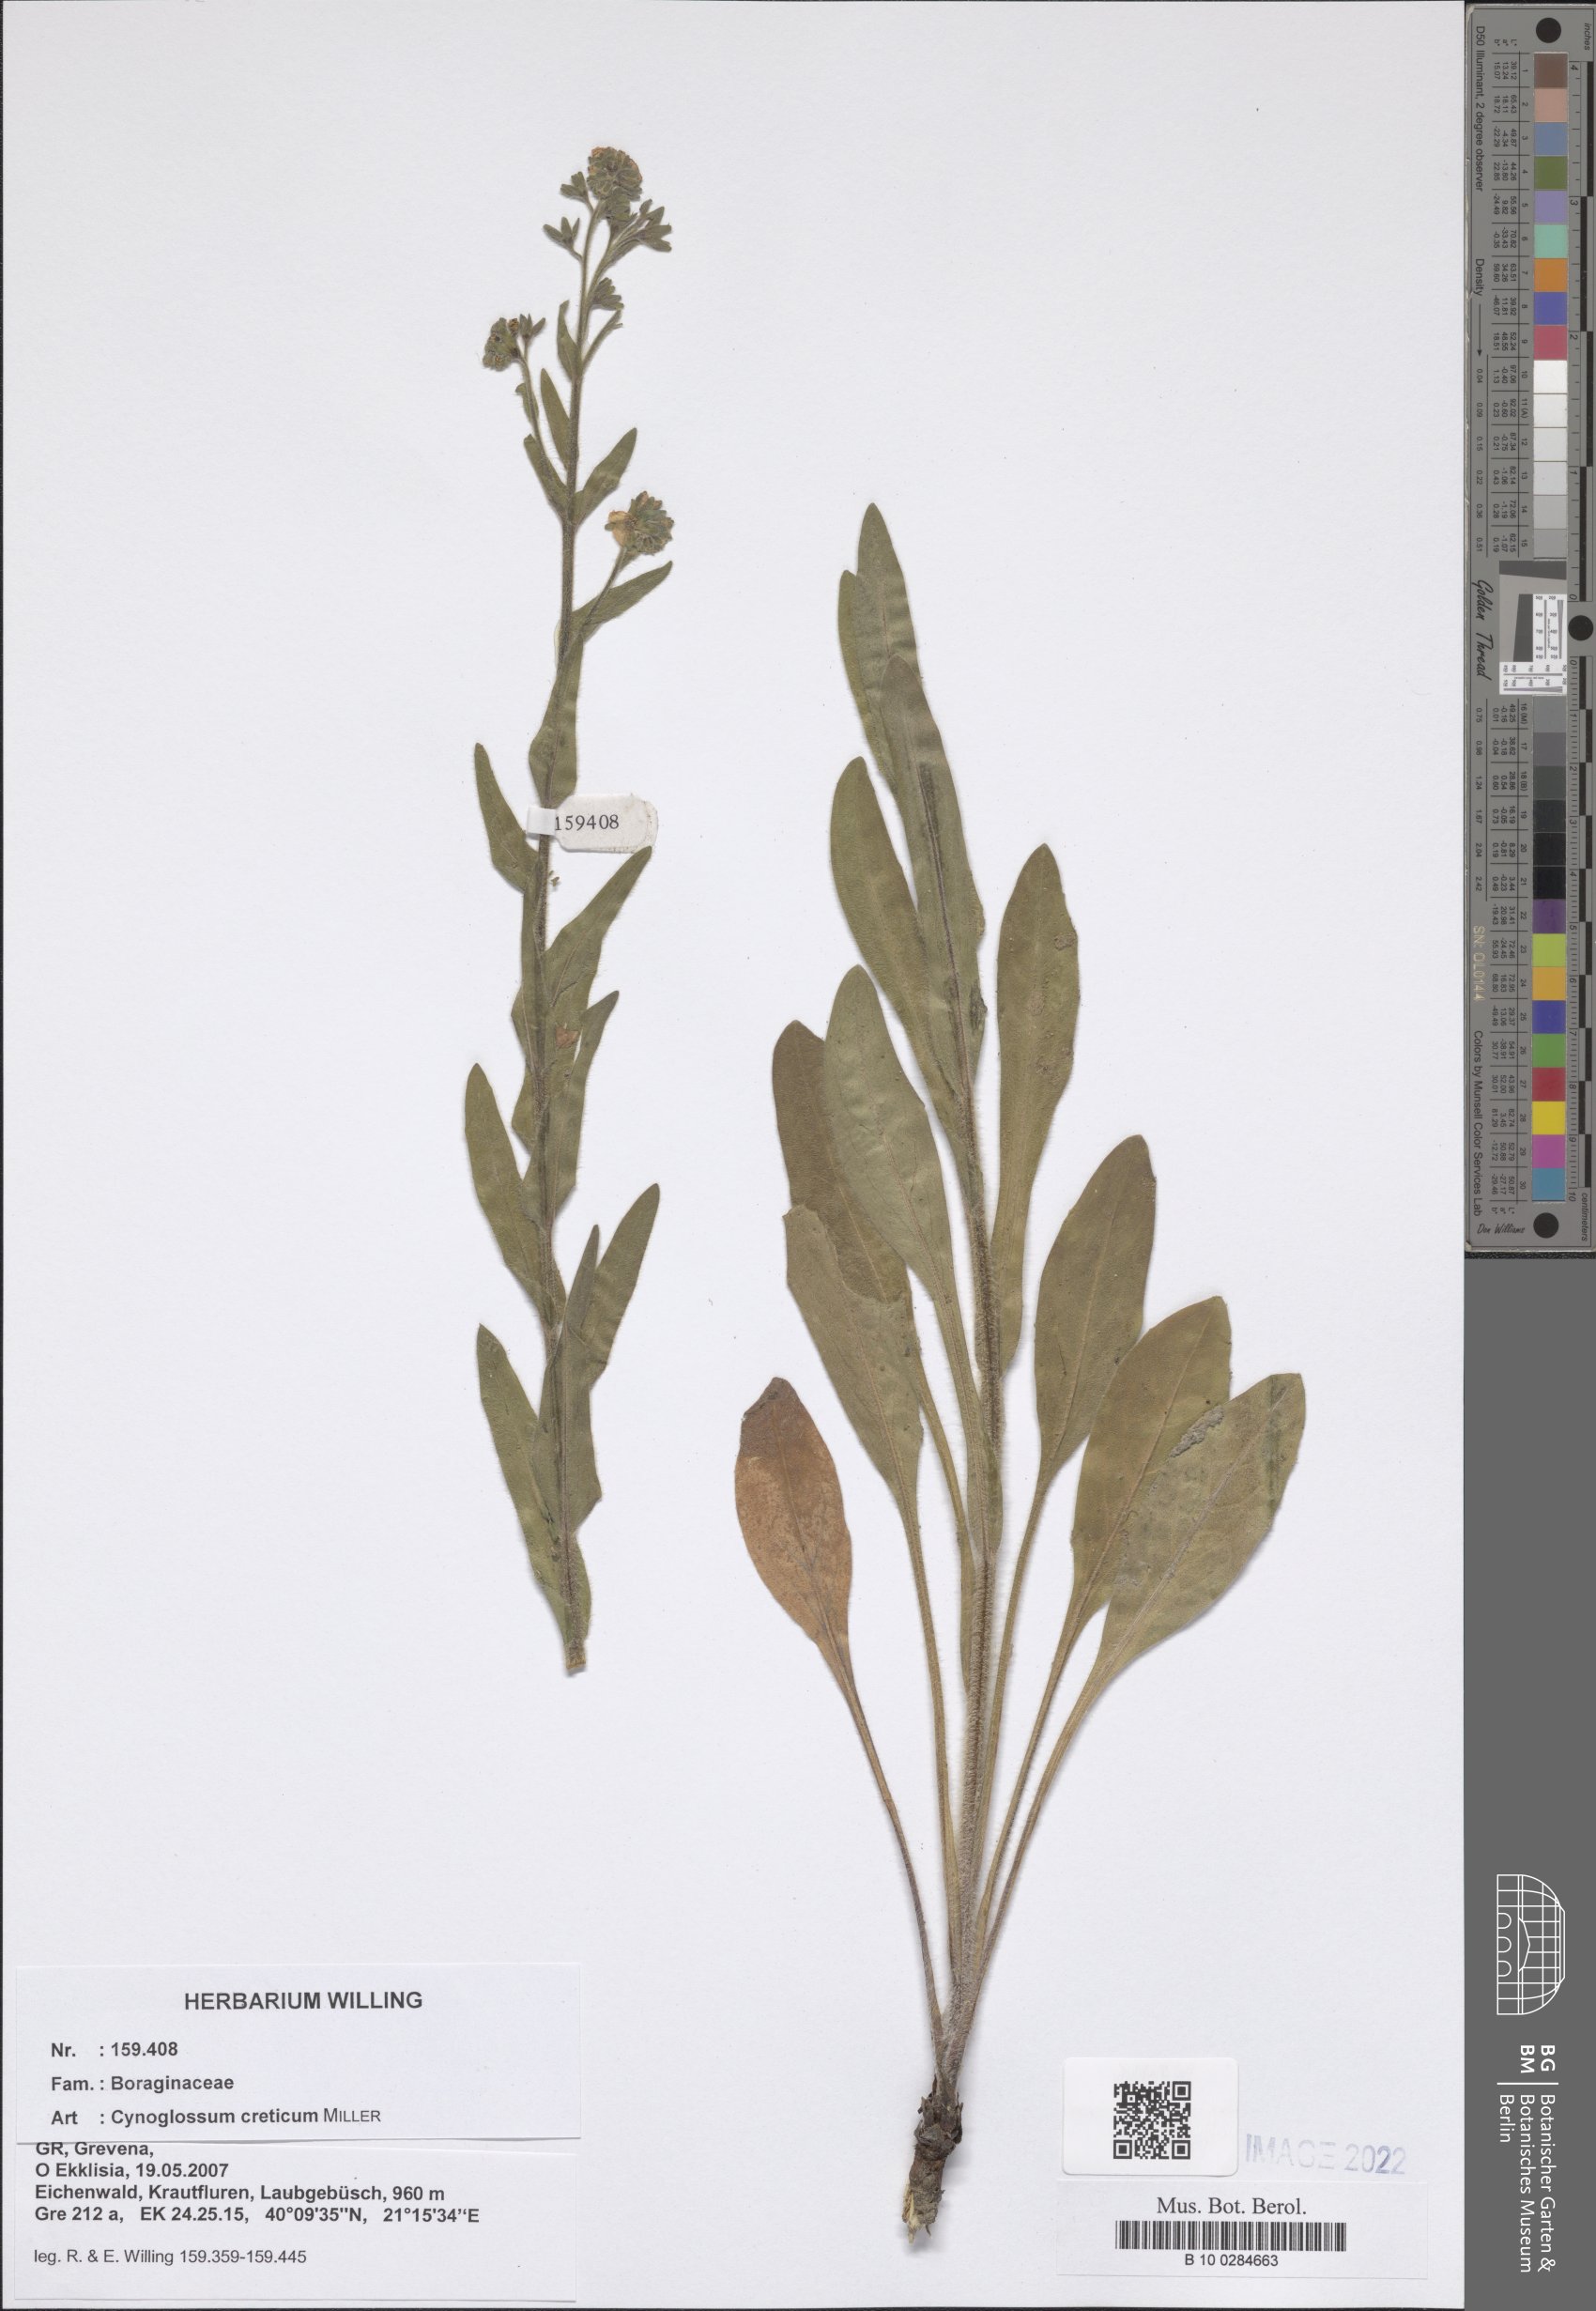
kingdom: Plantae
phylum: Tracheophyta
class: Magnoliopsida
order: Boraginales
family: Boraginaceae
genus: Cynoglossum
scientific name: Cynoglossum creticum
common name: Blue hound's tongue
